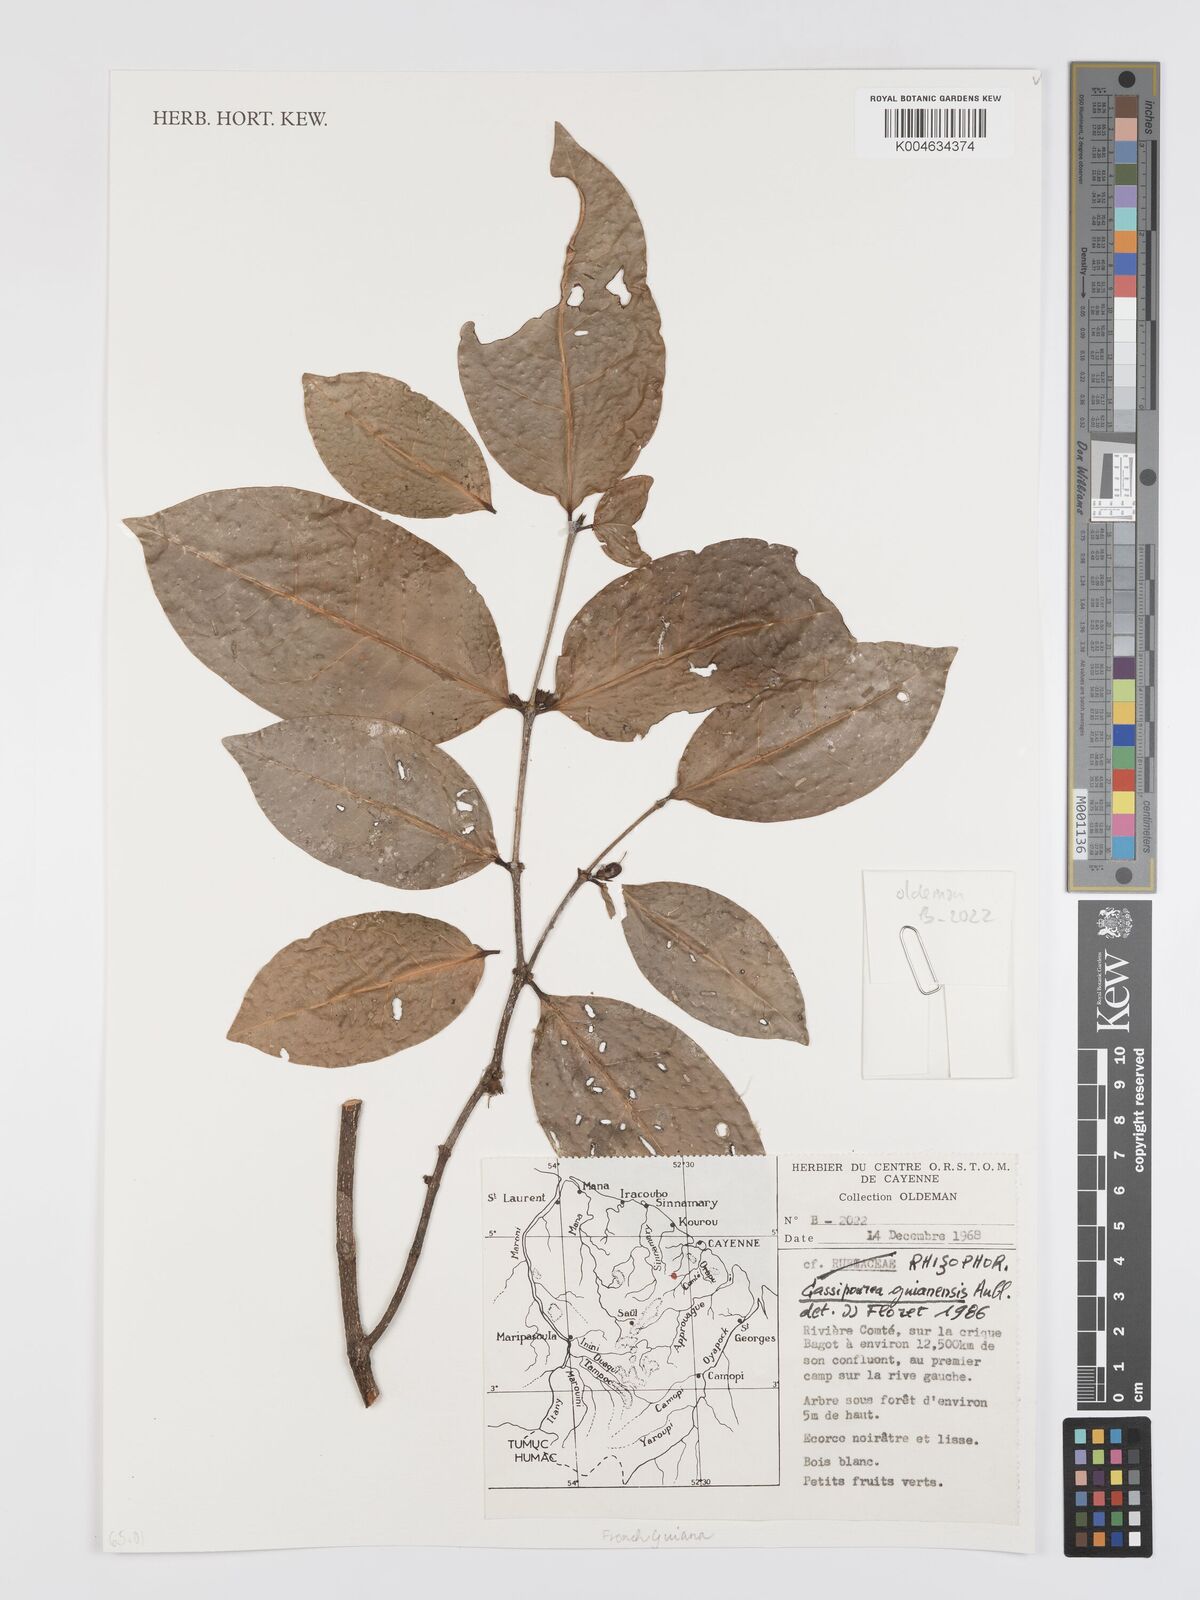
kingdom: Plantae
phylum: Tracheophyta
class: Magnoliopsida
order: Malpighiales
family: Rhizophoraceae
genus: Cassipourea
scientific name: Cassipourea guianensis
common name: Bastard waterwood
